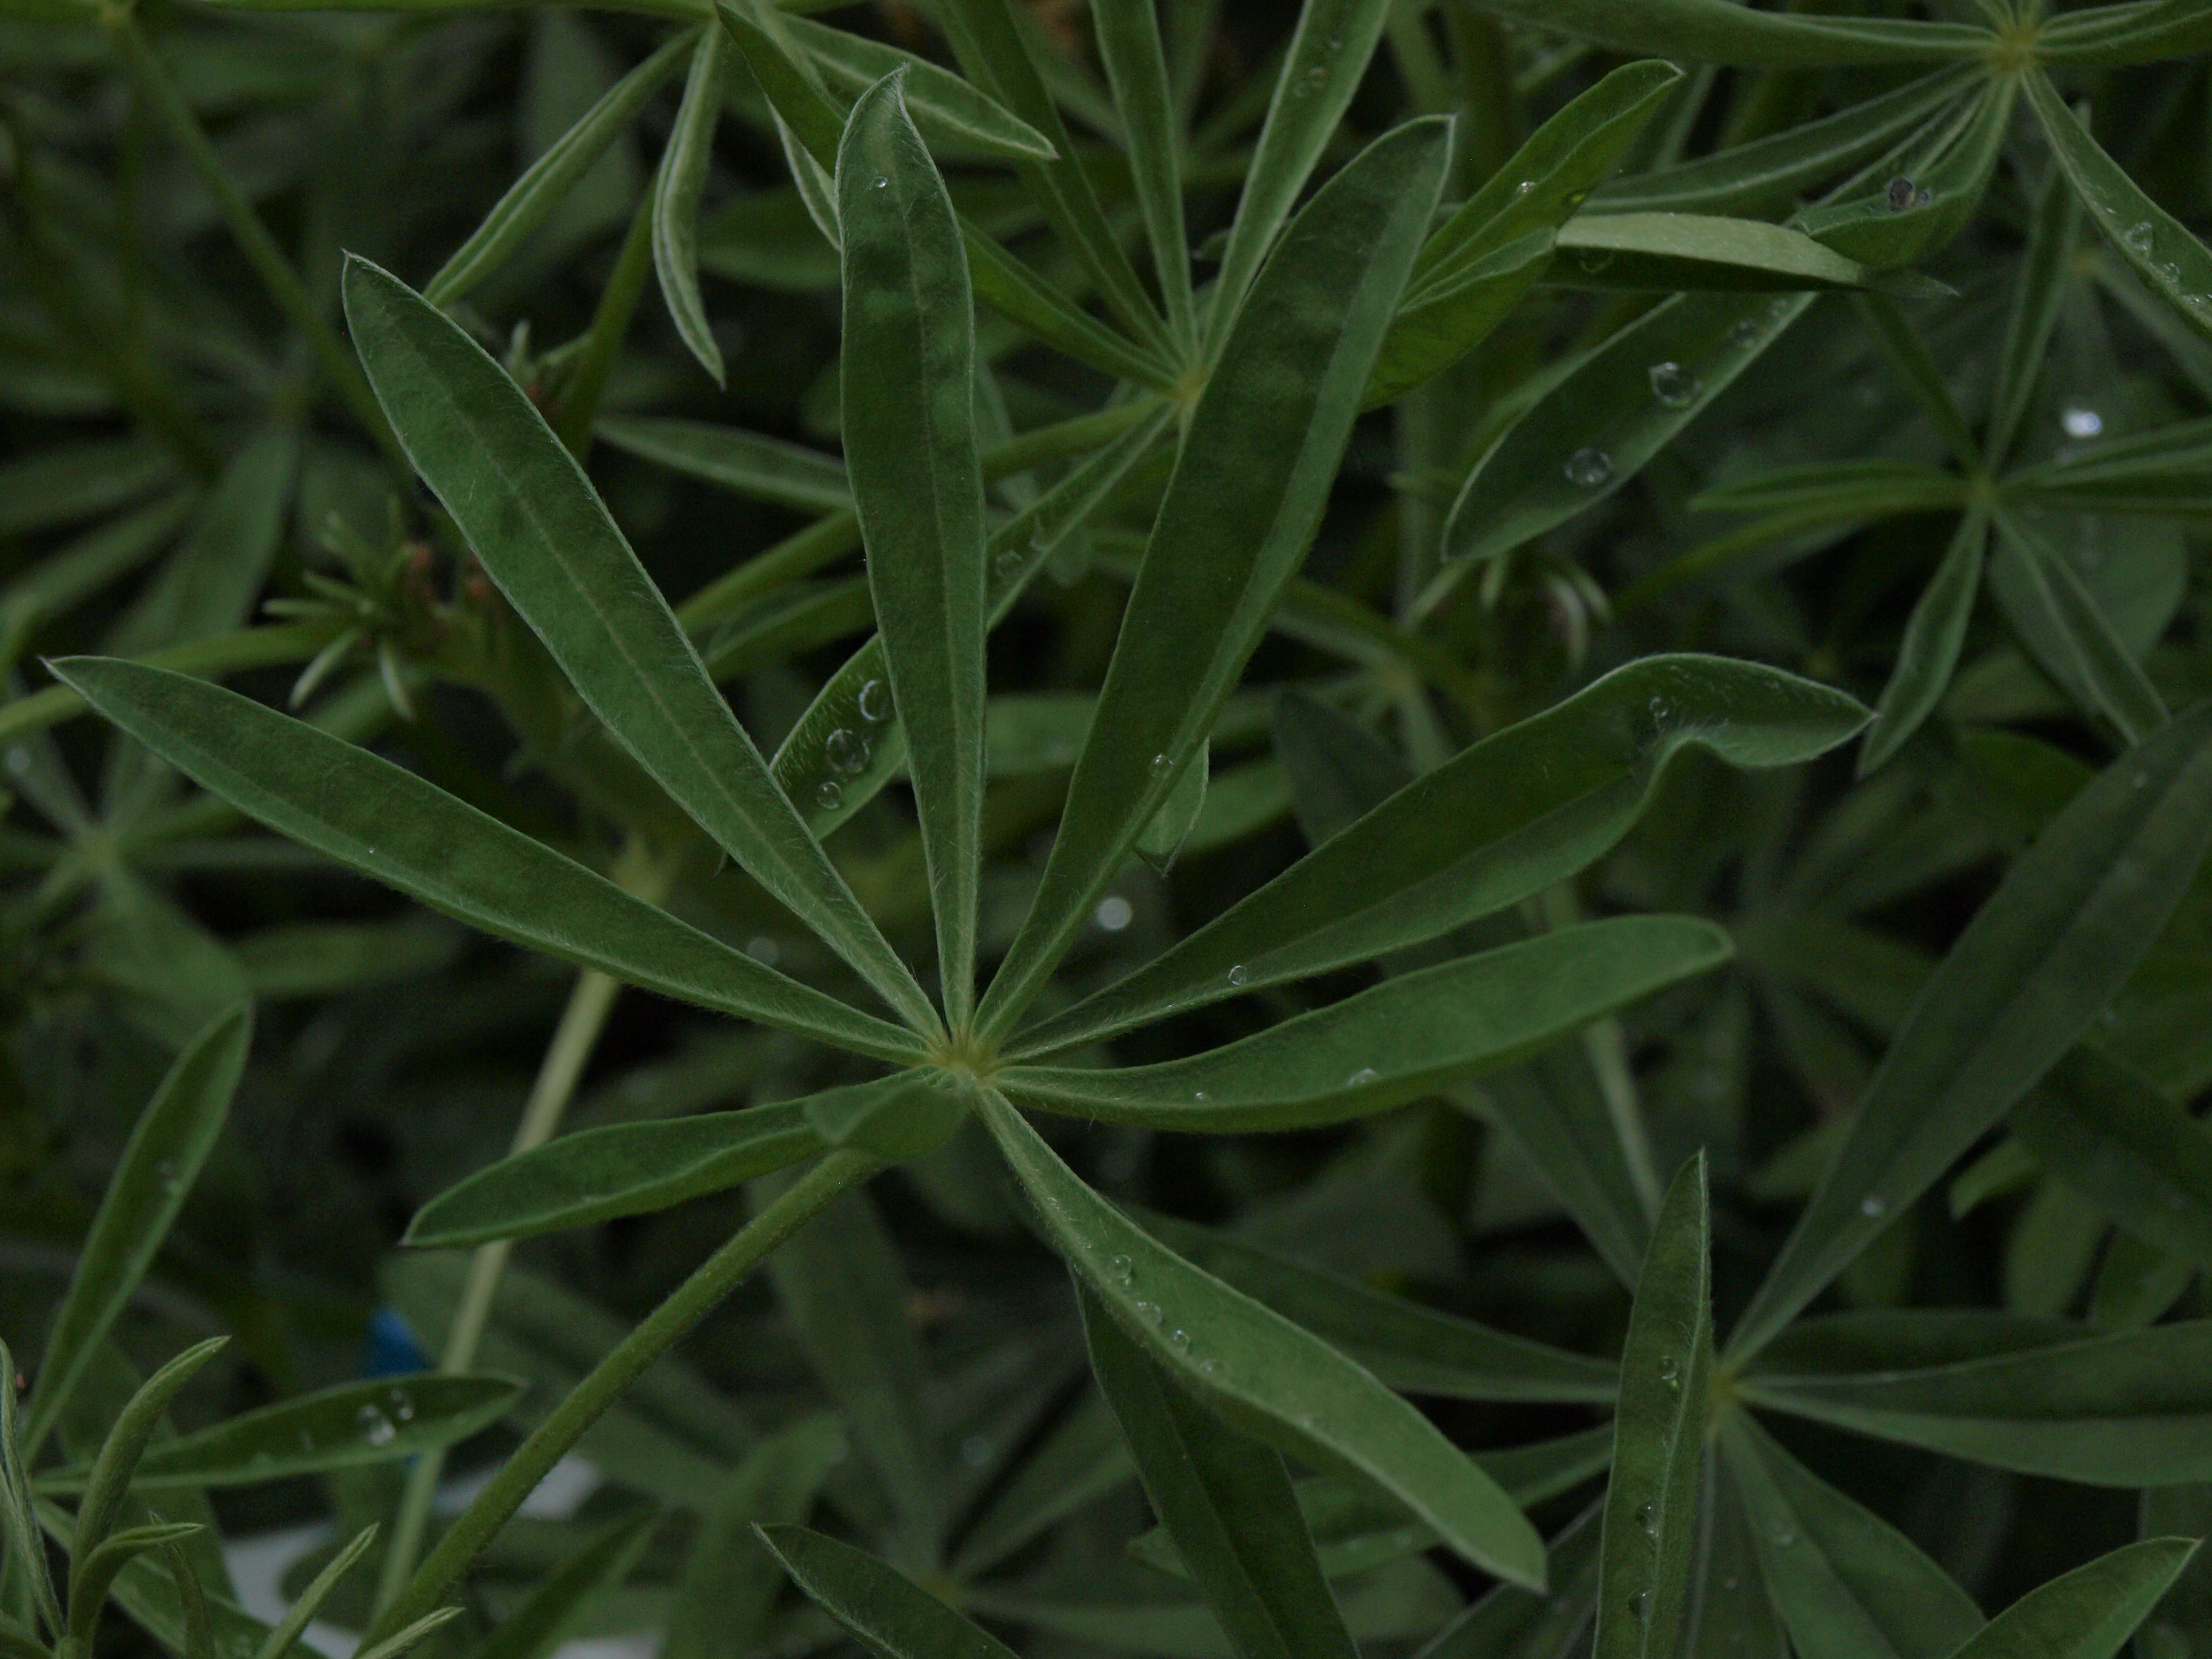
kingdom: Plantae
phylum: Tracheophyta
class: Magnoliopsida
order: Fabales
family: Fabaceae
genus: Lupinus
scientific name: Lupinus luteus
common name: European yellow lupine
